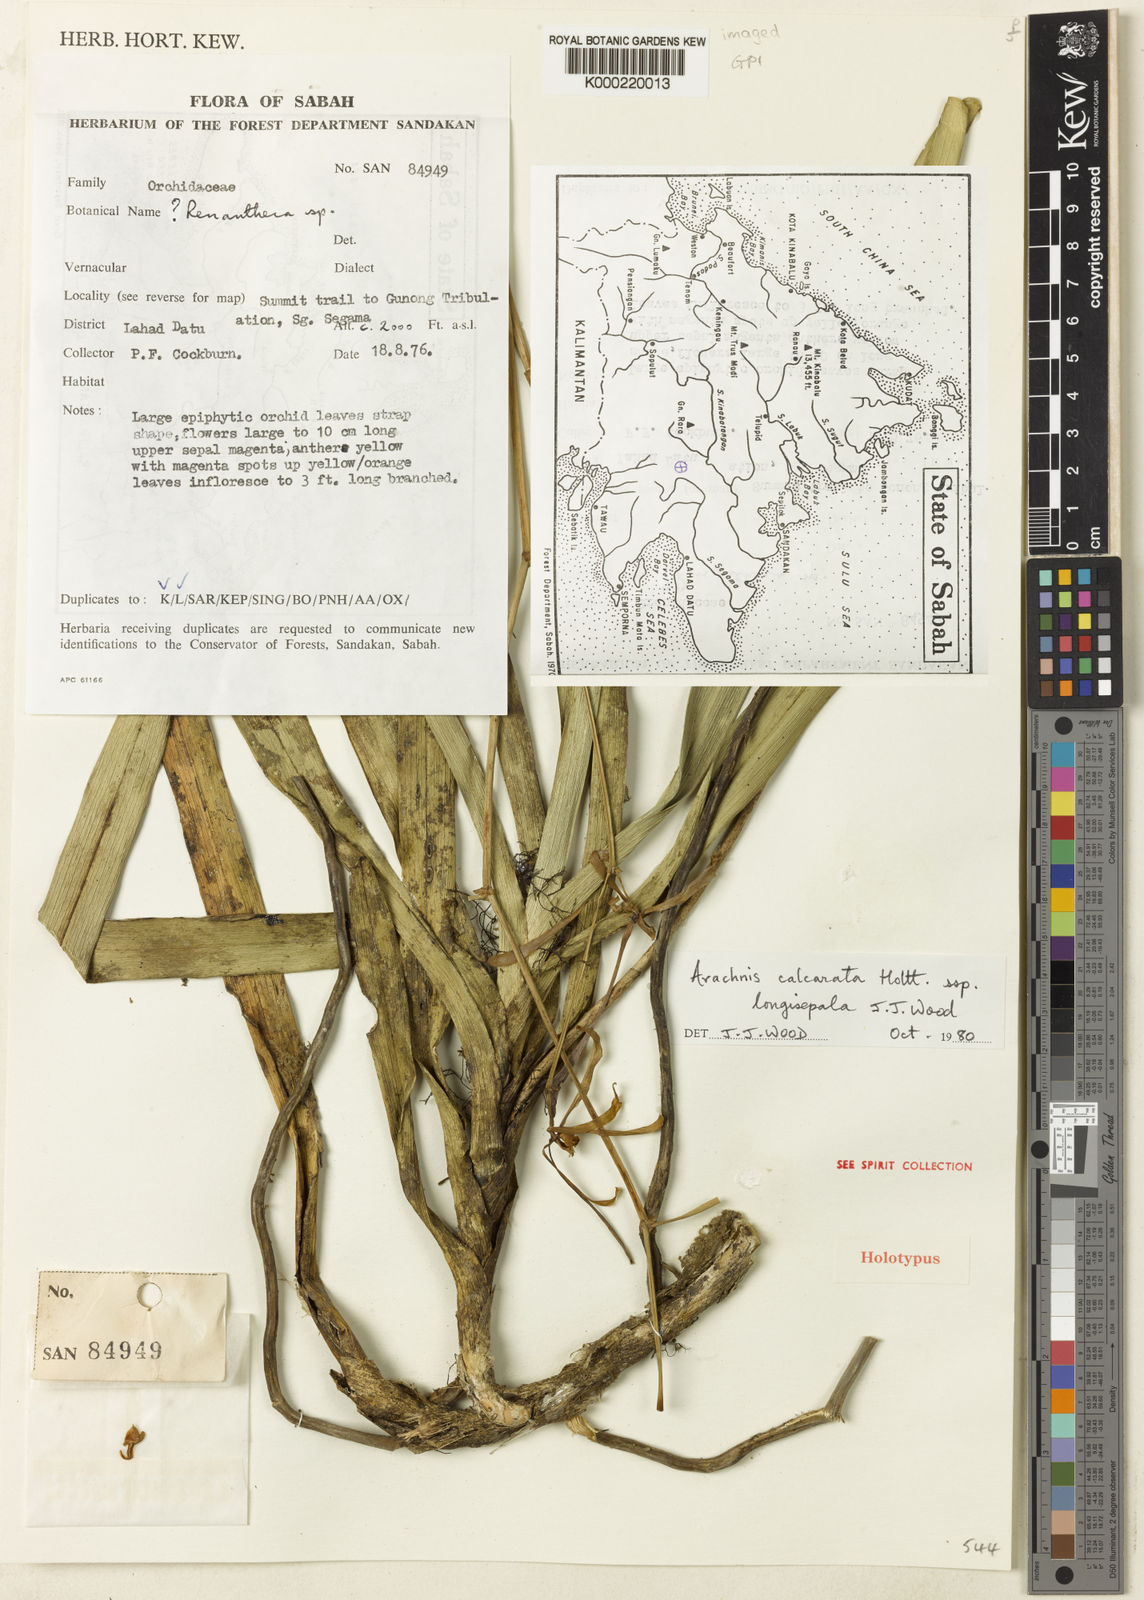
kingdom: Plantae
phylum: Tracheophyta
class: Liliopsida
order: Asparagales
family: Orchidaceae
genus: Arachnis
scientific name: Arachnis longisepala
